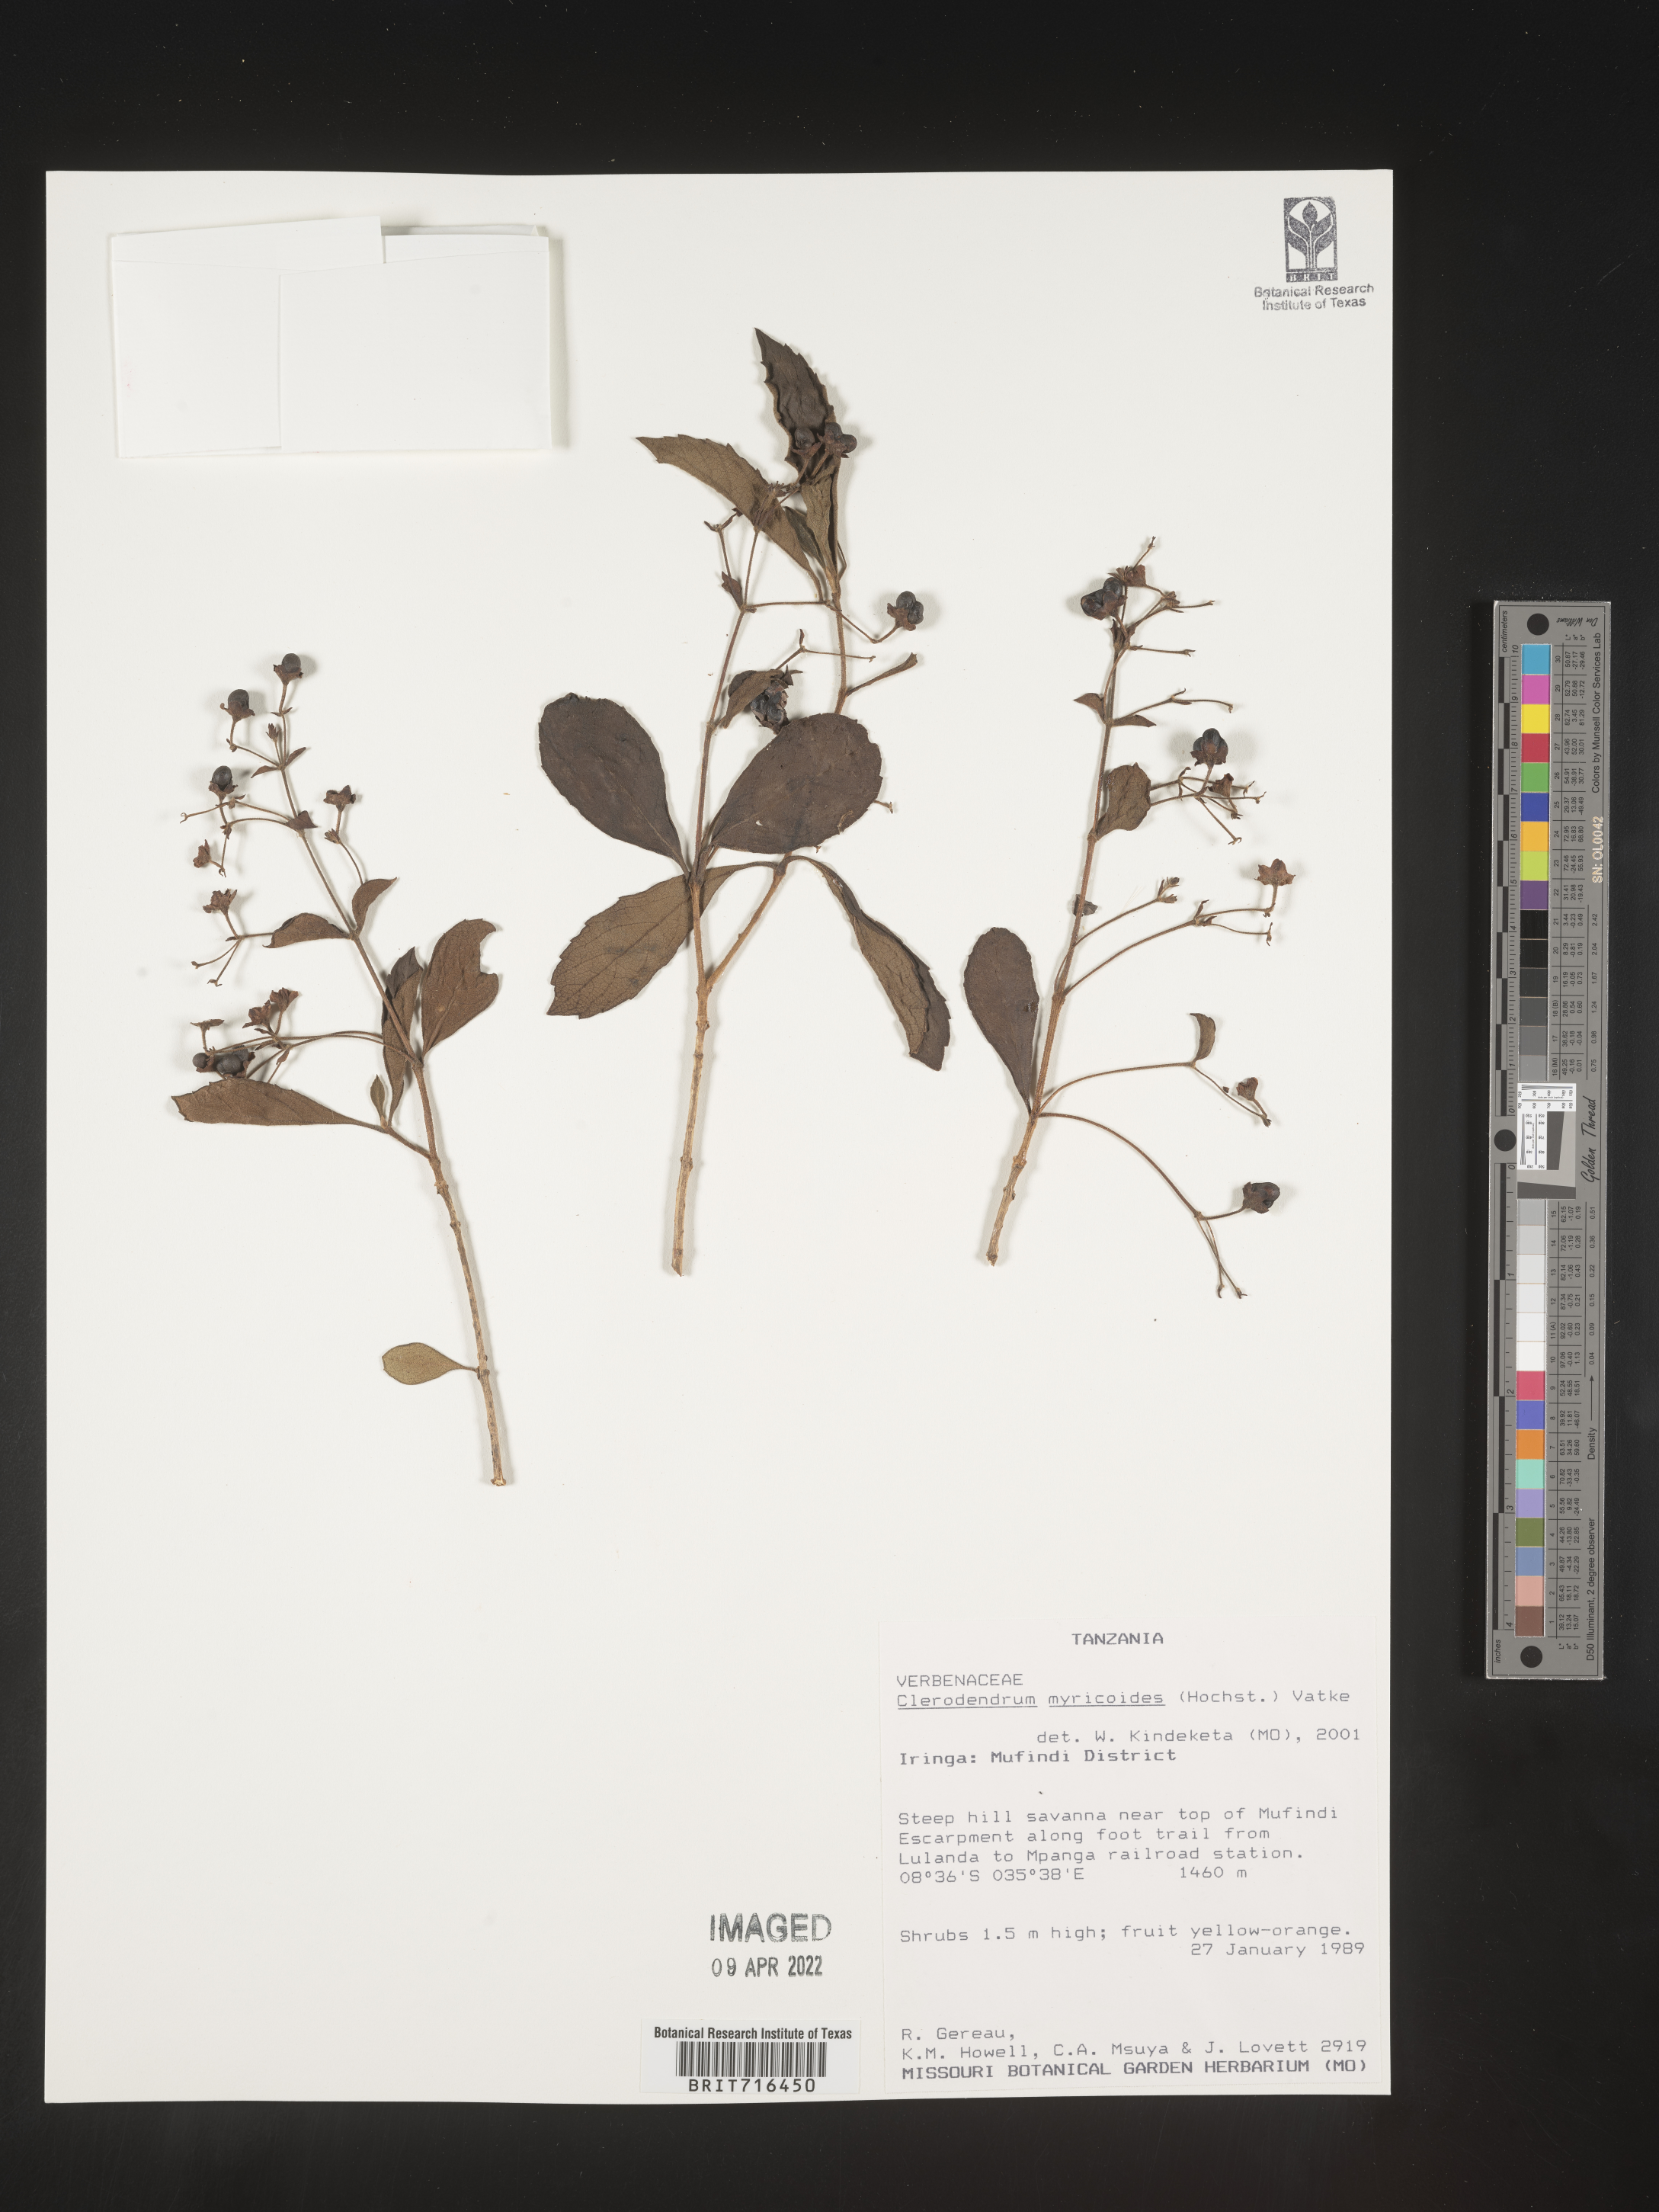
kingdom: Plantae
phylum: Tracheophyta
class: Magnoliopsida
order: Lamiales
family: Lamiaceae
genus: Clerodendrum
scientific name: Clerodendrum
